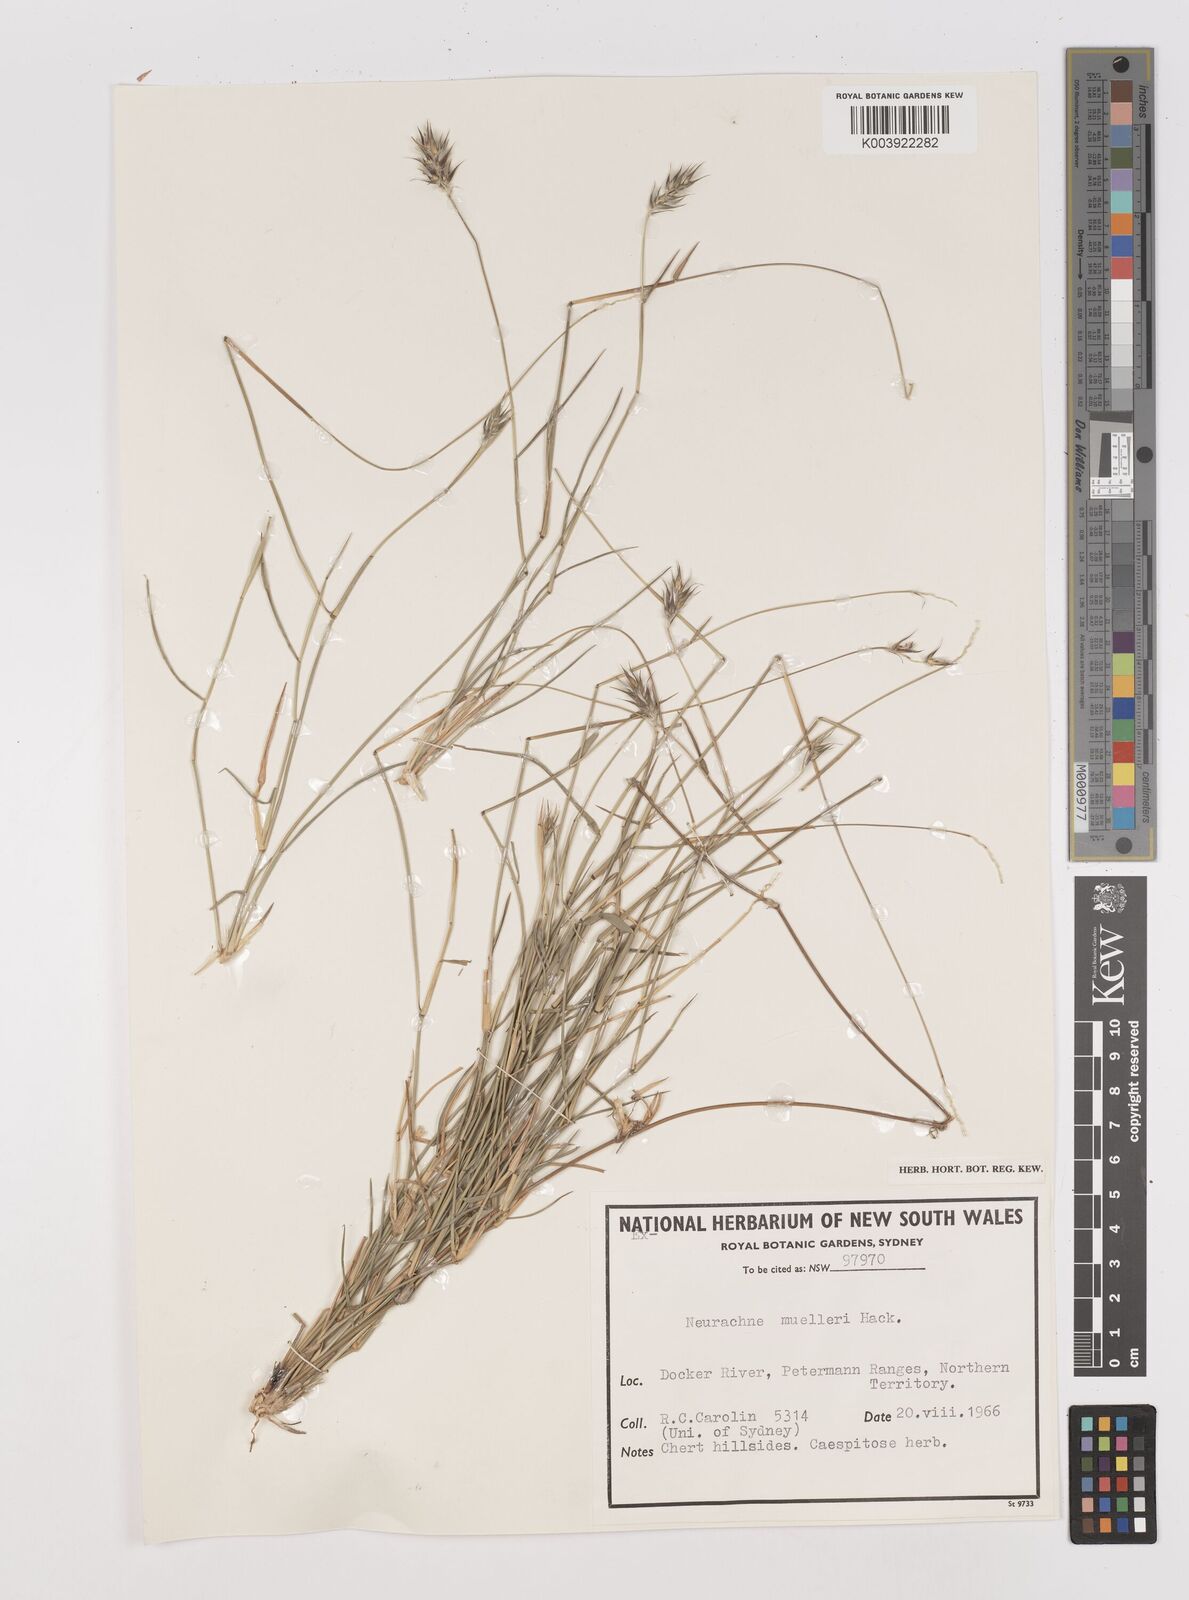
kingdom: Plantae
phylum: Tracheophyta
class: Liliopsida
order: Poales
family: Poaceae
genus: Neurachne
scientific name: Neurachne muelleri
